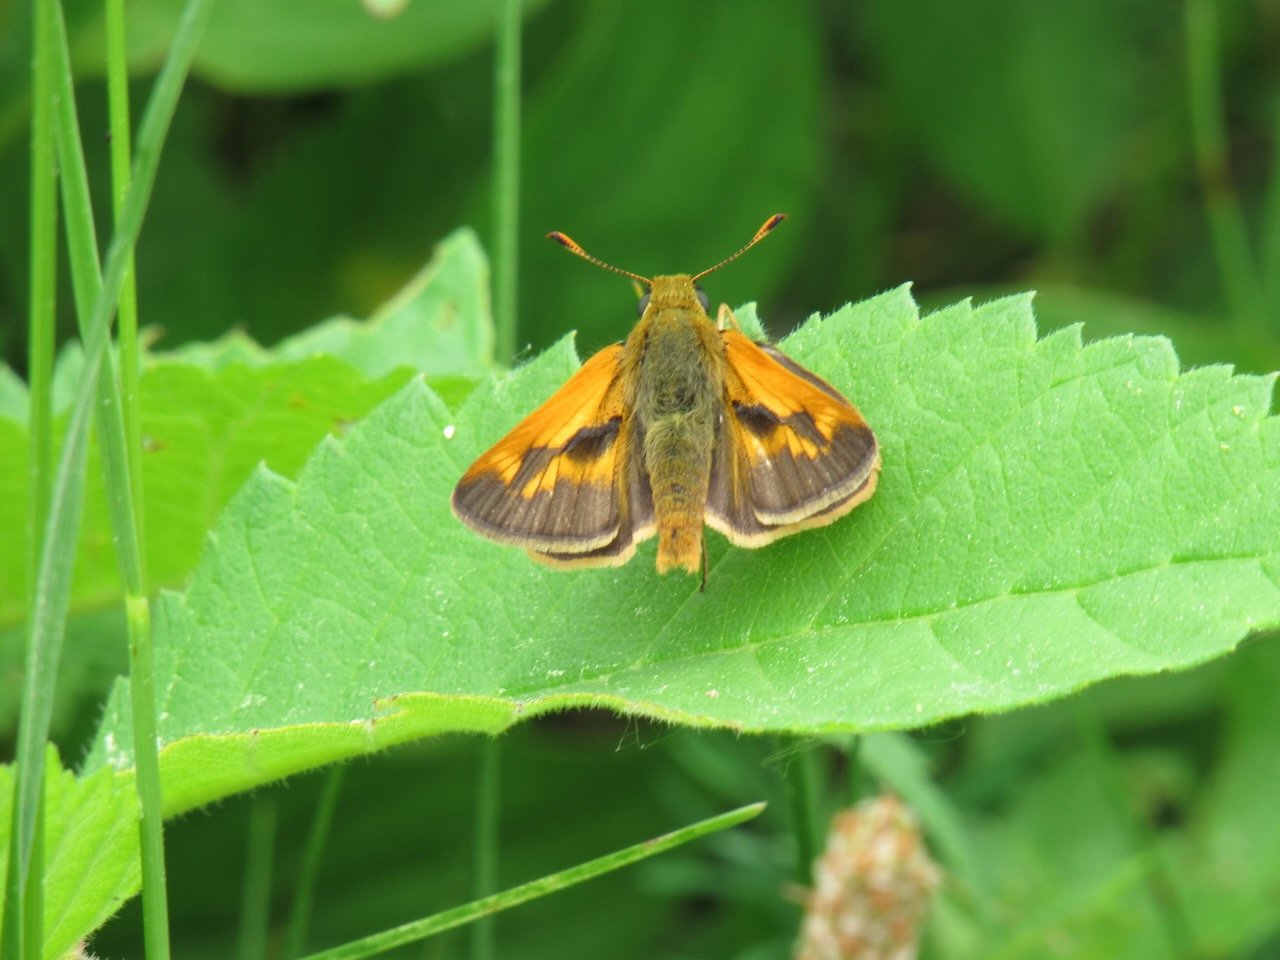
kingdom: Animalia
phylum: Arthropoda
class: Insecta
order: Lepidoptera
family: Hesperiidae
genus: Polites
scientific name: Polites
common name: Long Dash Skipper
